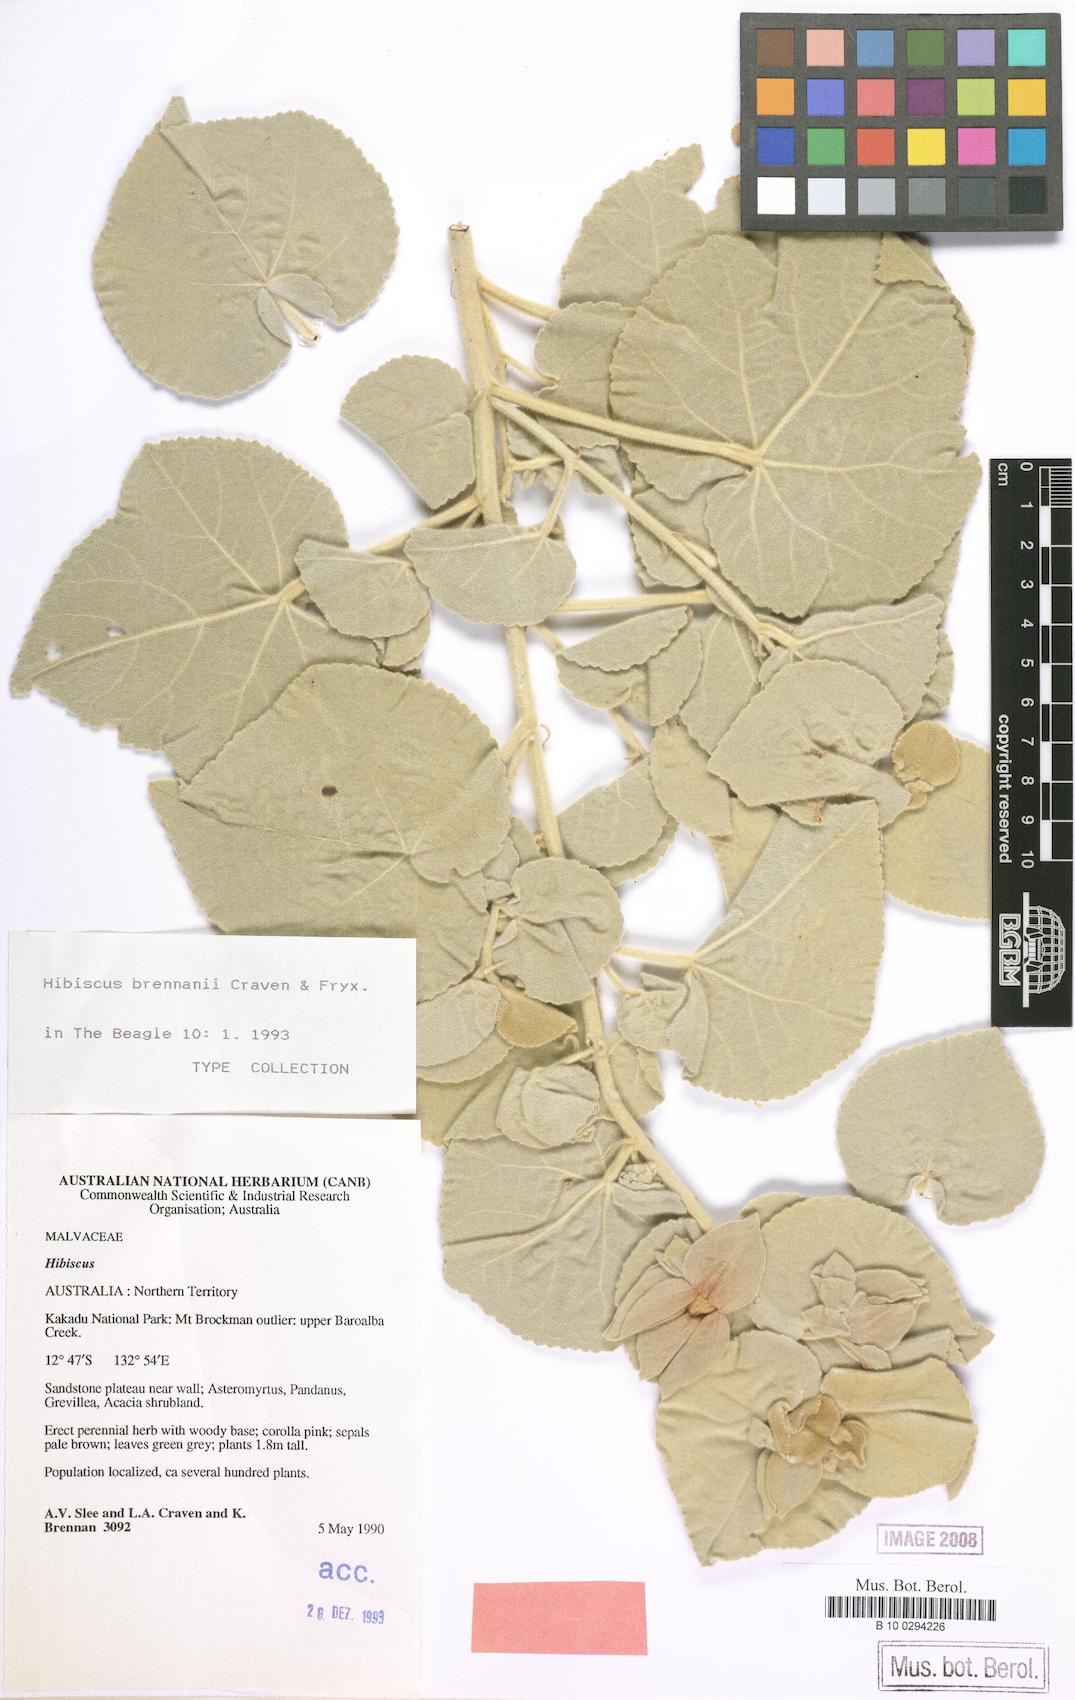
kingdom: Plantae
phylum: Tracheophyta
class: Magnoliopsida
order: Malvales
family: Malvaceae
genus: Hibiscus
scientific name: Hibiscus brennanii
